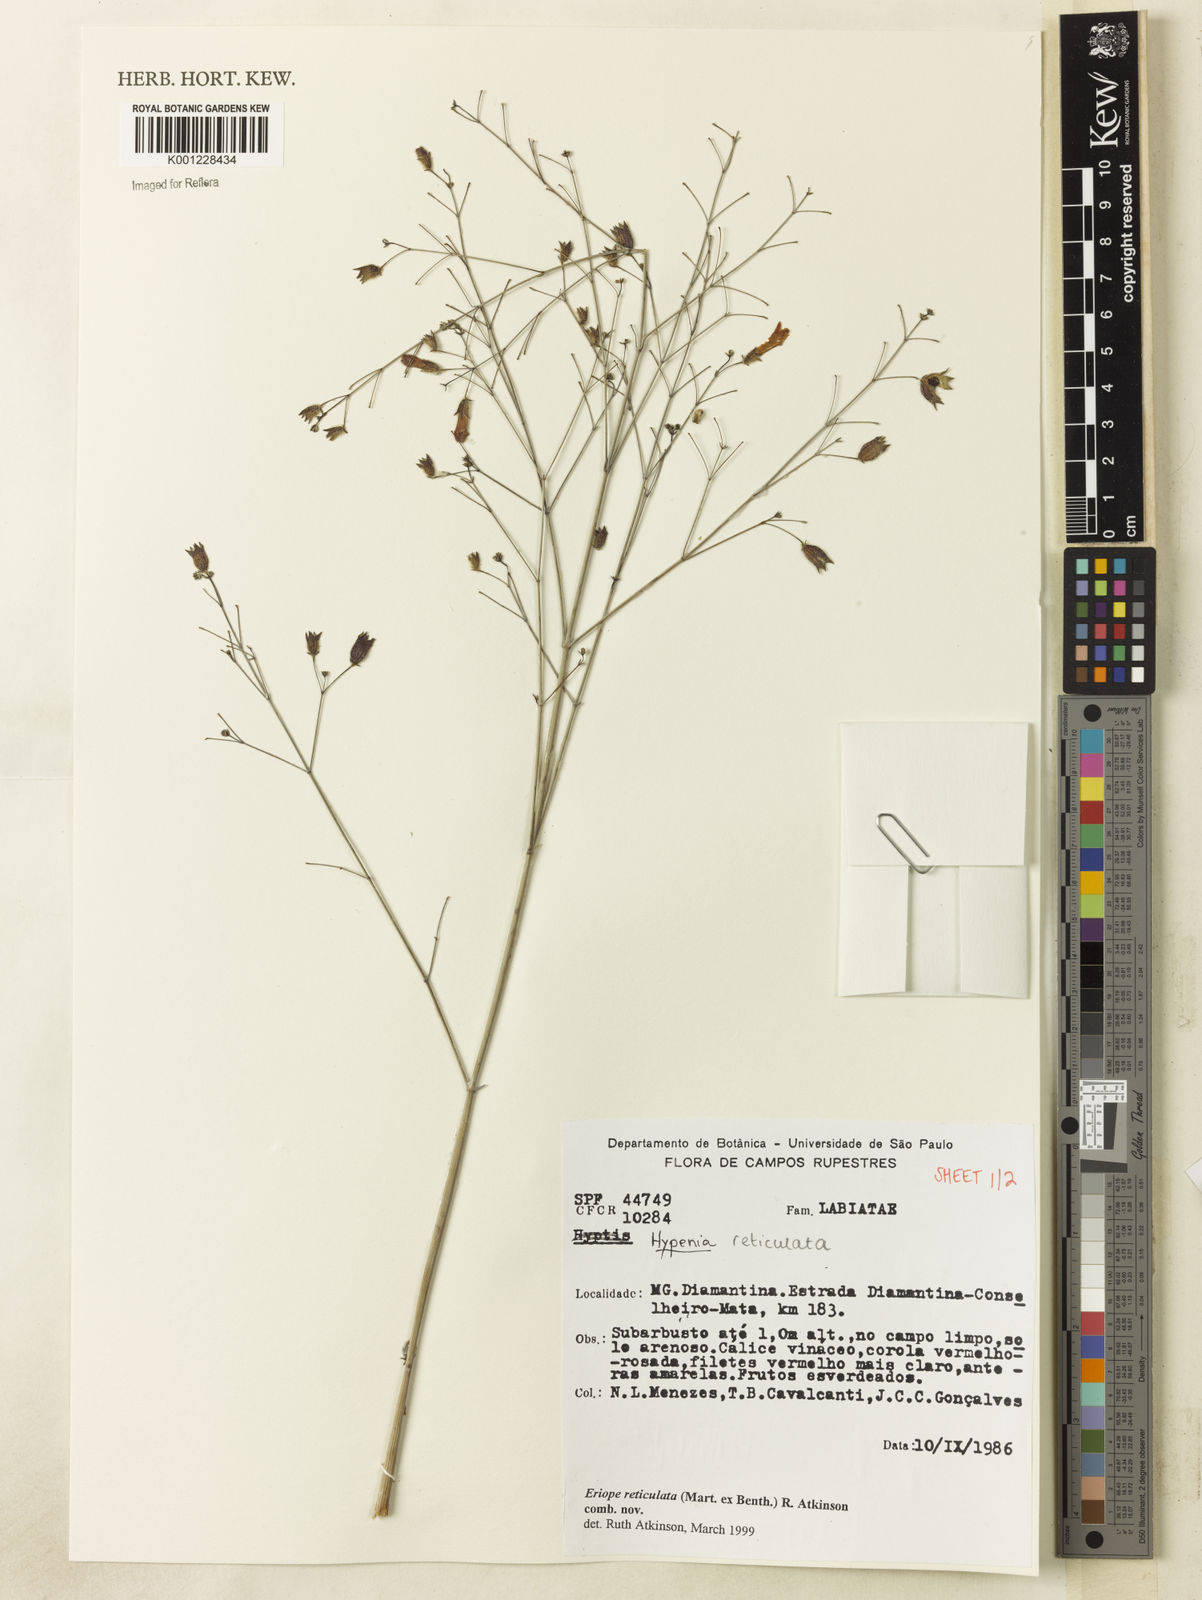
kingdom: Plantae
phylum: Tracheophyta
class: Magnoliopsida
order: Lamiales
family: Lamiaceae
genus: Hypenia
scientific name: Hypenia reticulata
